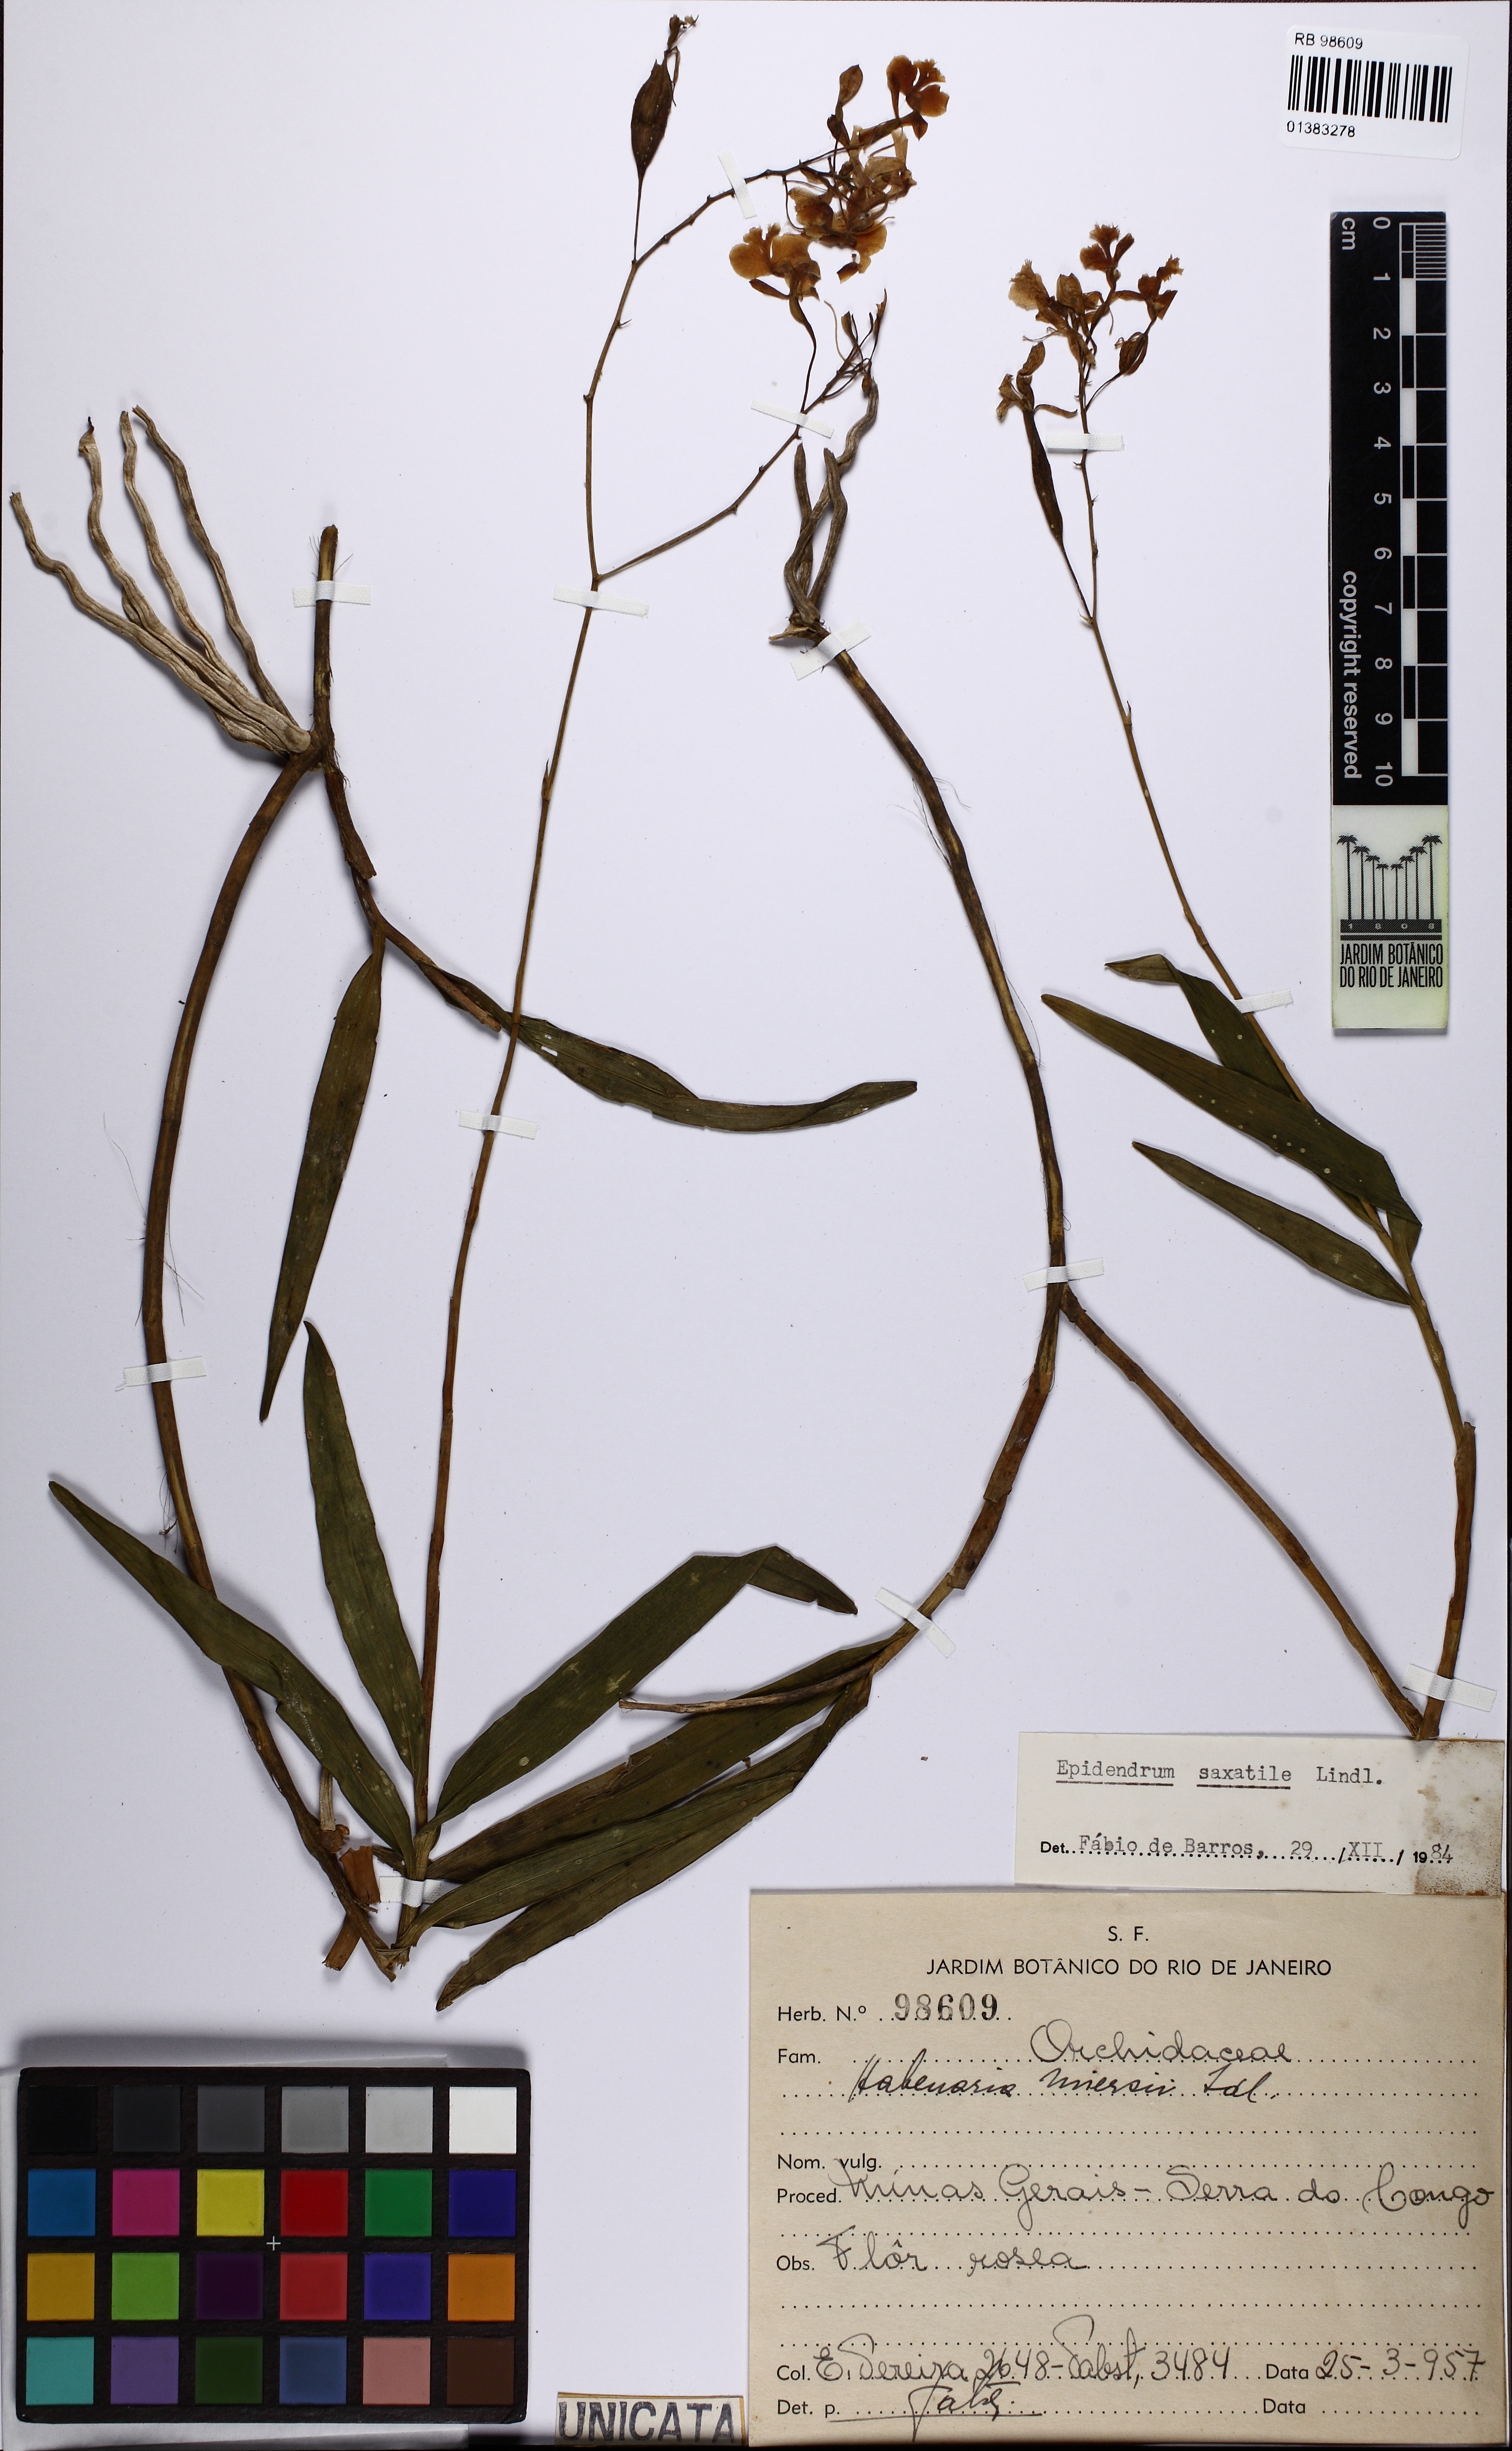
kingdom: Plantae
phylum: Tracheophyta
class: Liliopsida
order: Asparagales
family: Orchidaceae
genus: Epidendrum
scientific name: Epidendrum saxatile
